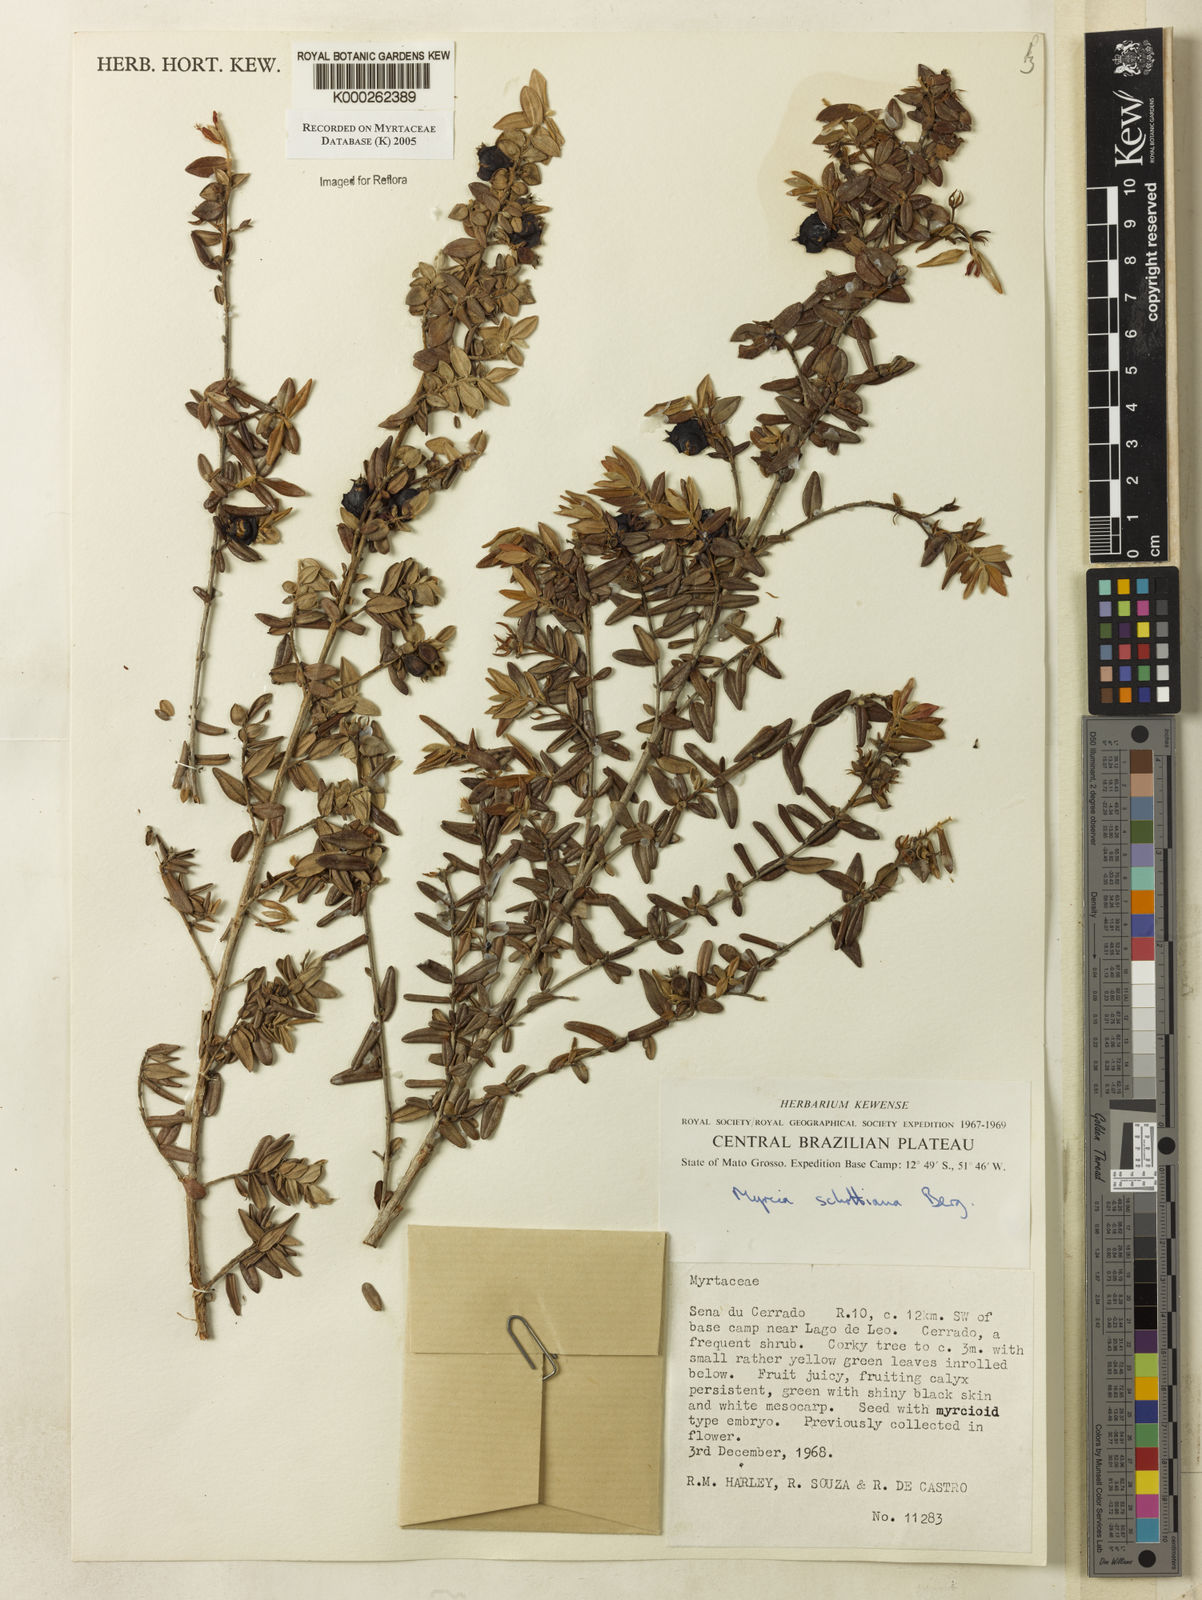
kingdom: Plantae
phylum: Tracheophyta
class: Magnoliopsida
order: Myrtales
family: Myrtaceae
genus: Myrcia
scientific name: Myrcia schottiana
